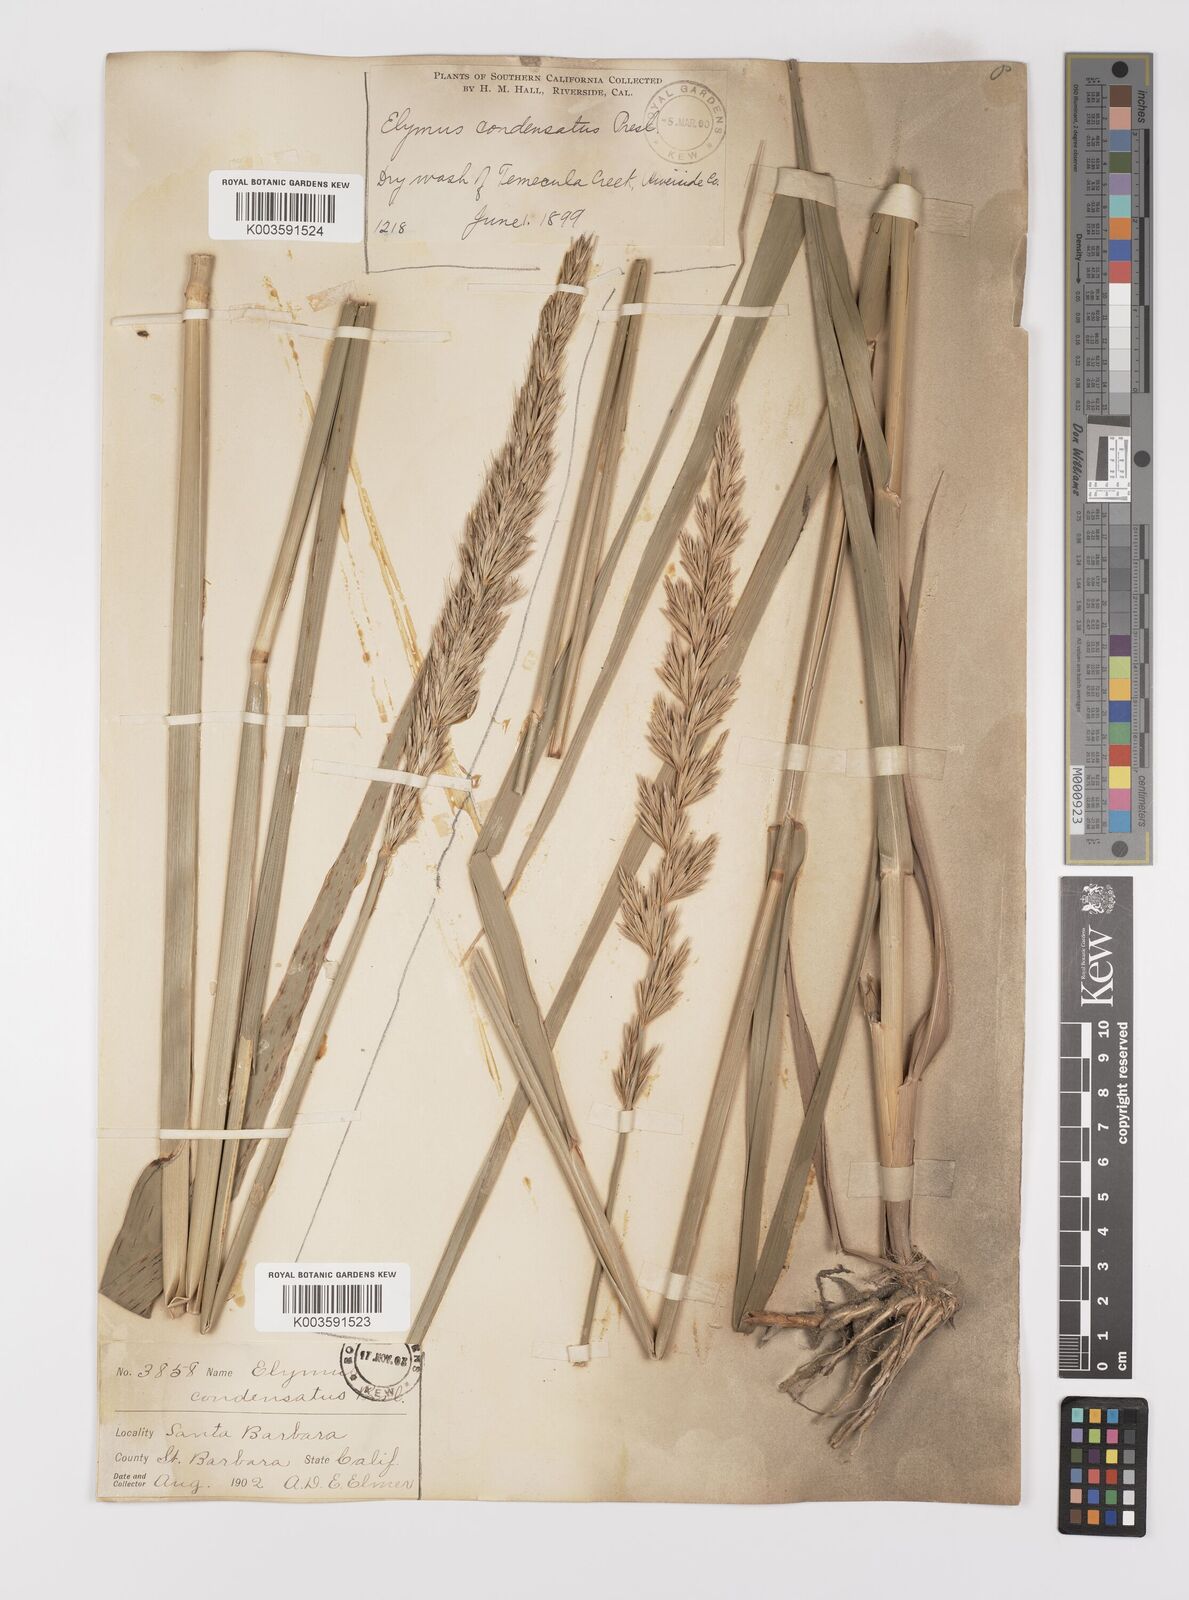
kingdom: Plantae
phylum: Tracheophyta
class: Liliopsida
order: Poales
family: Poaceae
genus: Leymus
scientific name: Leymus condensatus
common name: Giant wild rye
